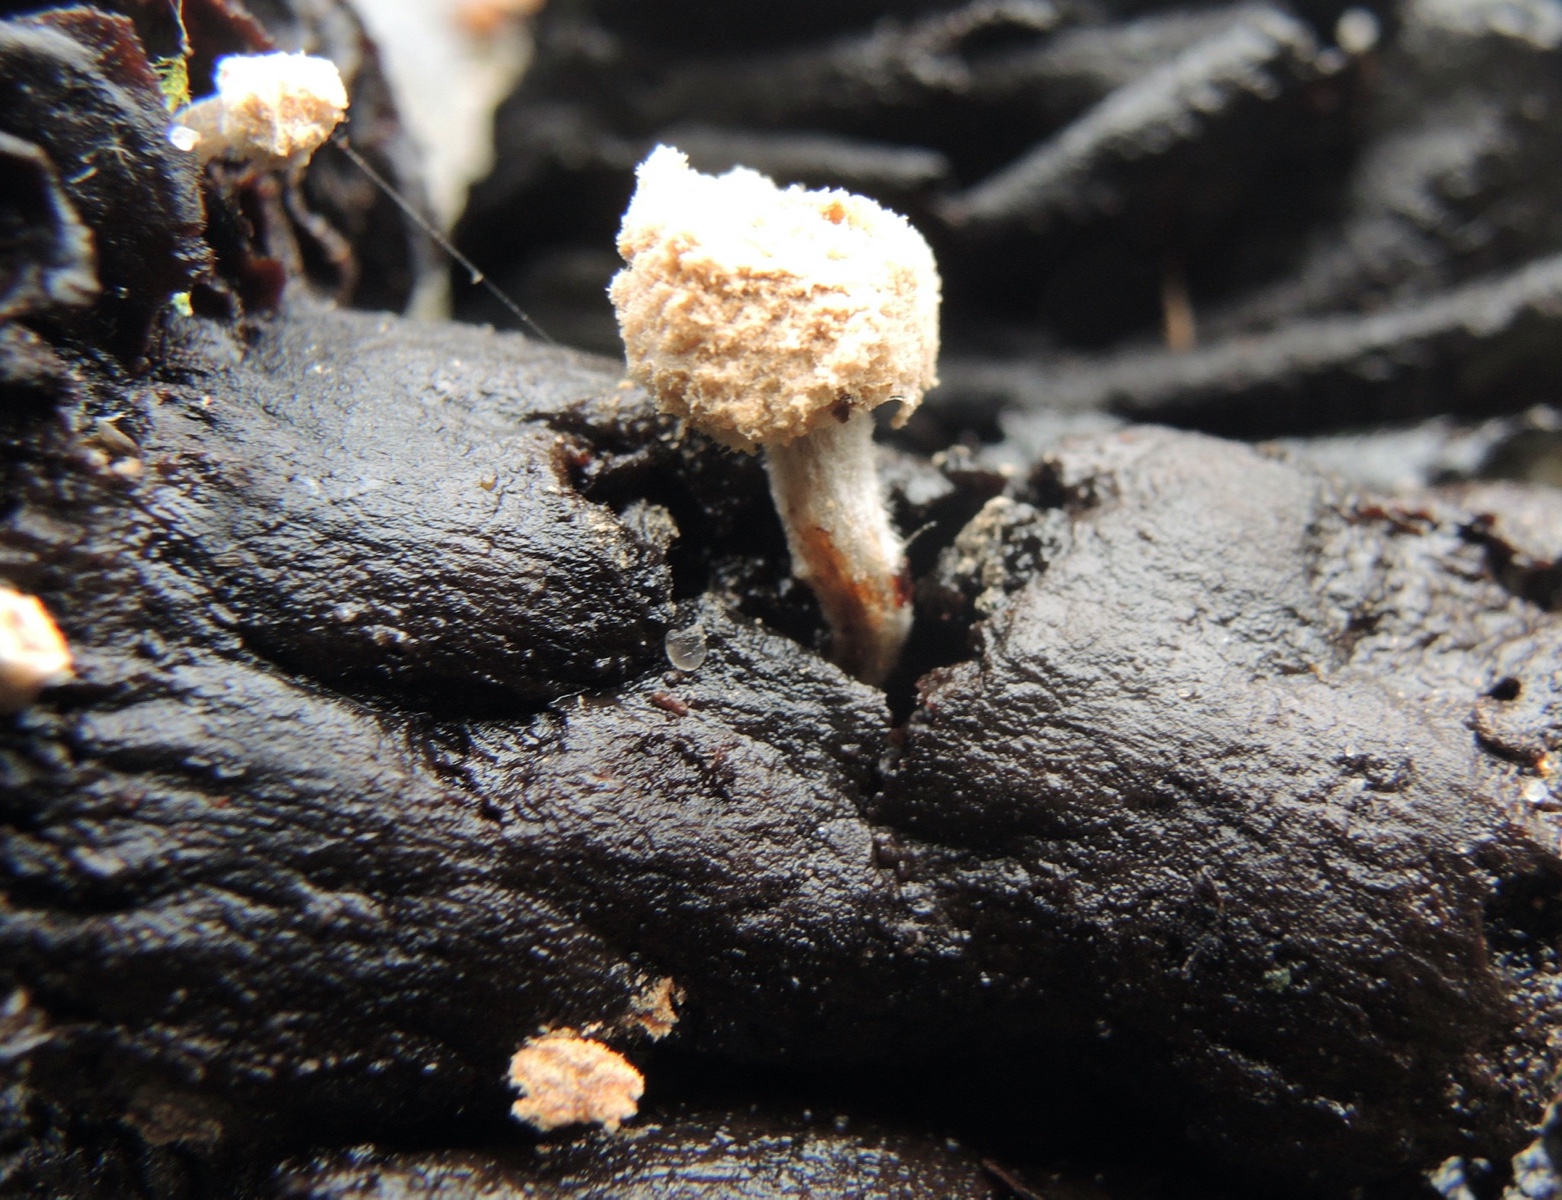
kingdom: Fungi
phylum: Basidiomycota
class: Agaricomycetes
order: Agaricales
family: Lyophyllaceae
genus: Asterophora
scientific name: Asterophora lycoperdoides
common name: brunpudret snyltehat
